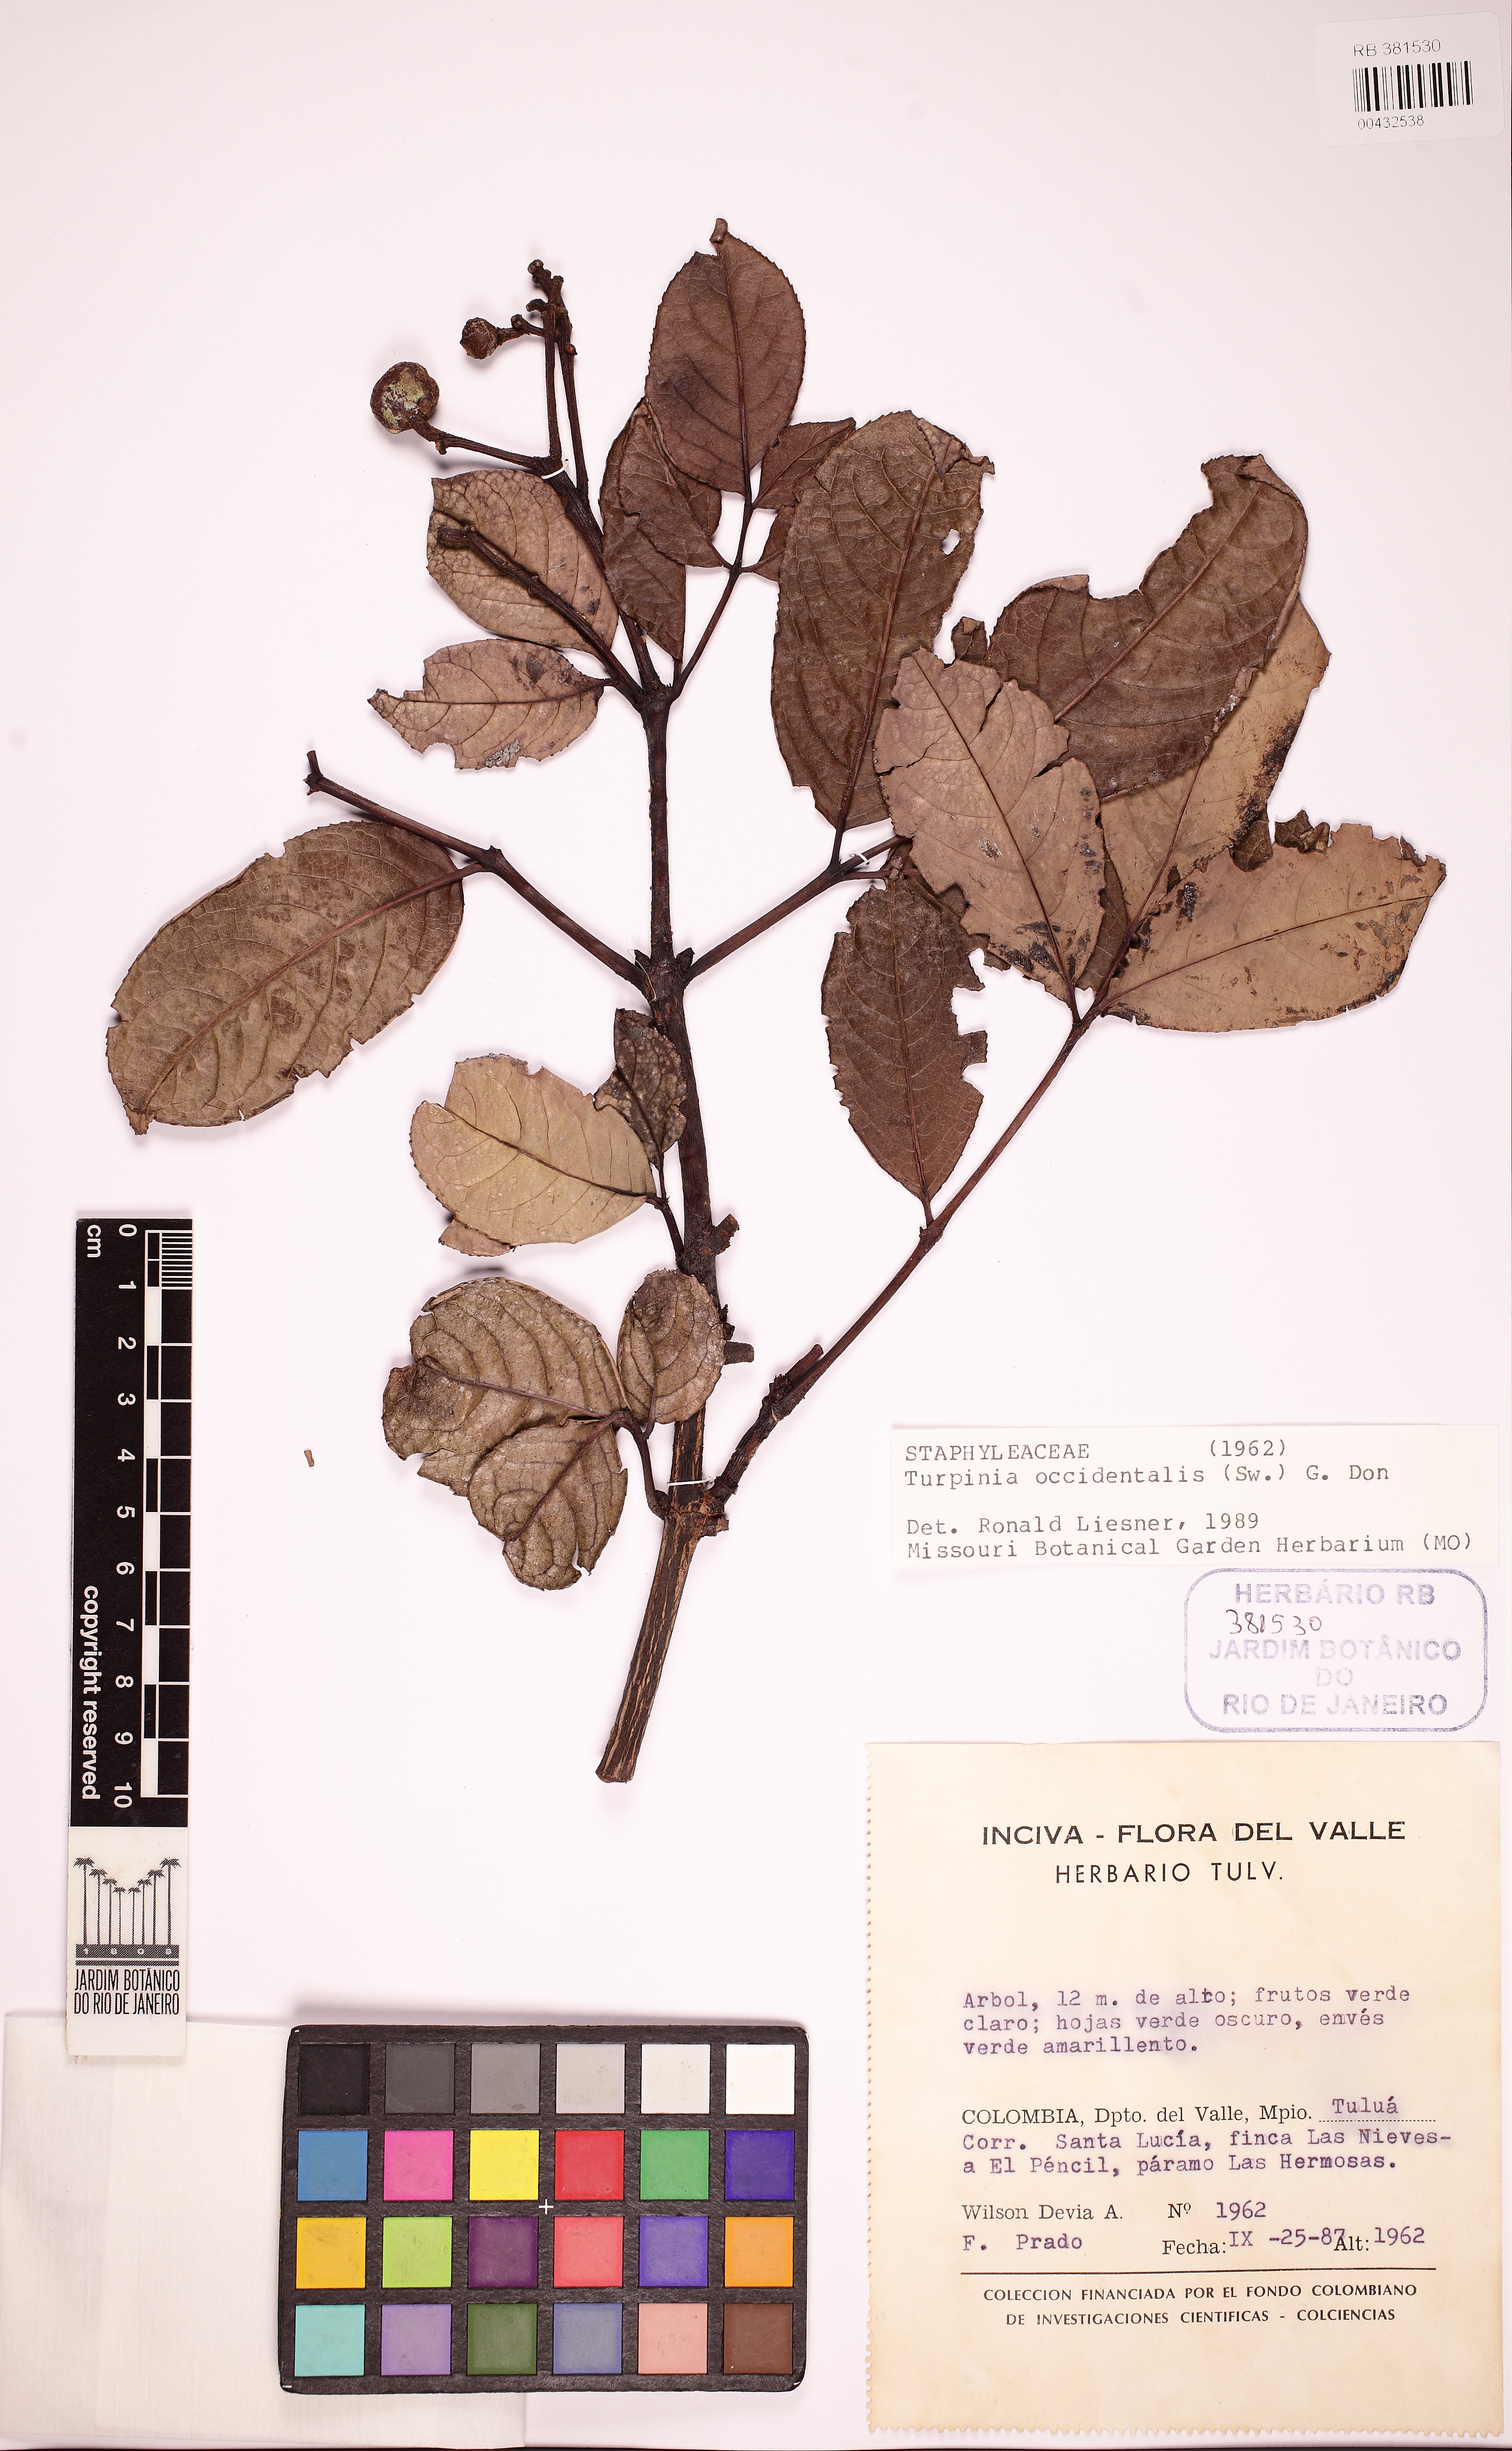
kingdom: Plantae
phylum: Tracheophyta
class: Magnoliopsida
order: Crossosomatales
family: Staphyleaceae
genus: Turpinia
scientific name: Turpinia occidentalis
